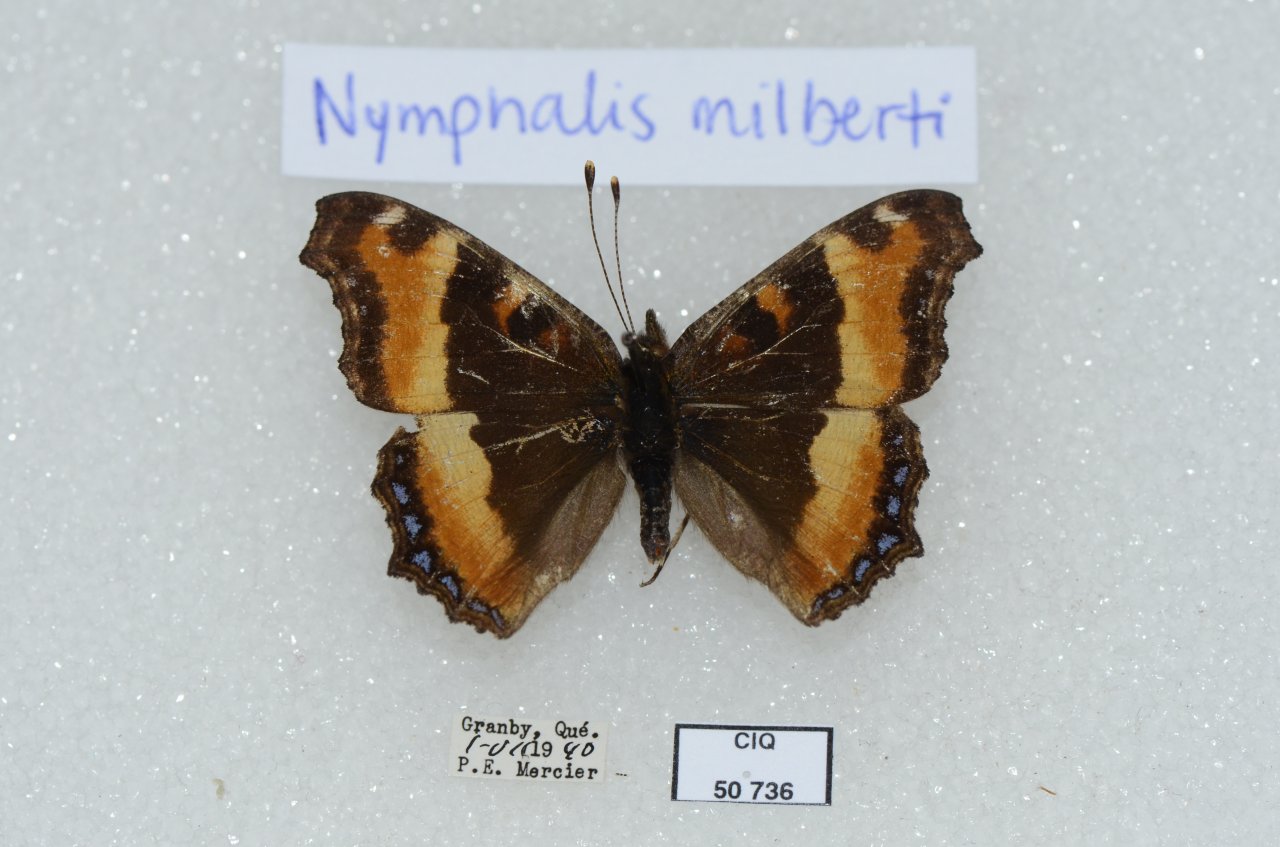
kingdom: Animalia
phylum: Arthropoda
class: Insecta
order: Lepidoptera
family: Nymphalidae
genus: Aglais
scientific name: Aglais milberti
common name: Milbert's Tortoiseshell
